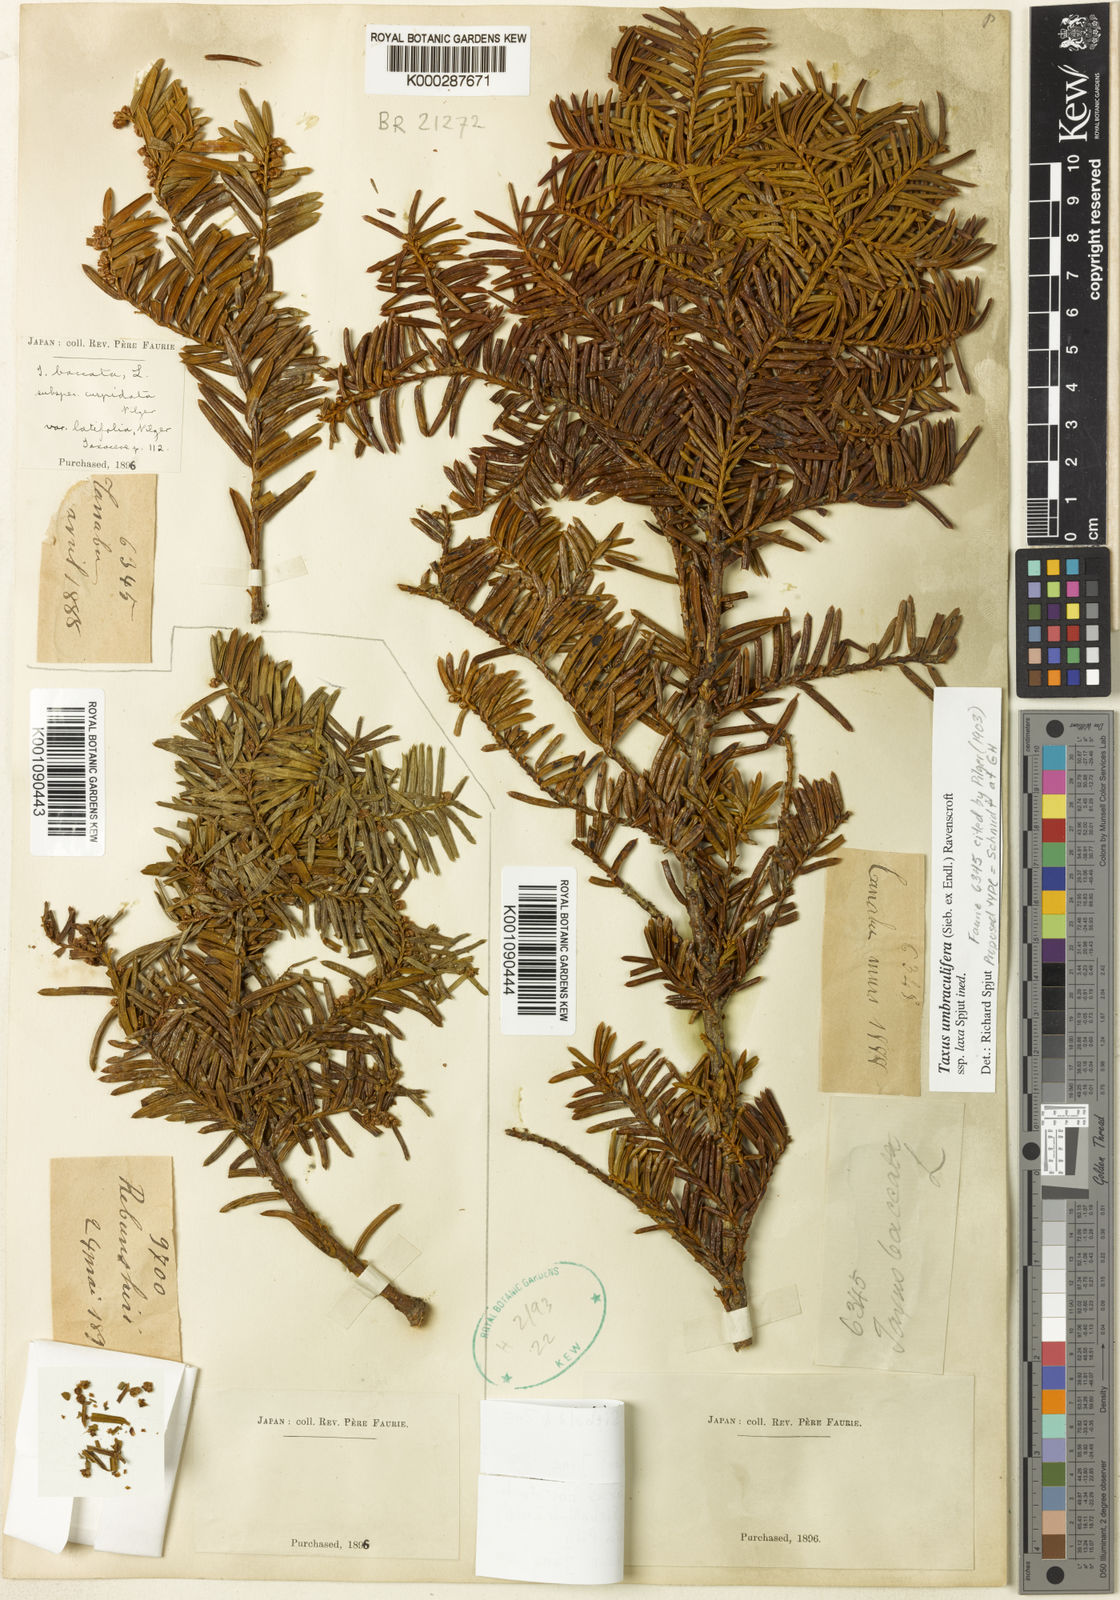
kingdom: Plantae
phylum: Tracheophyta
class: Pinopsida
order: Pinales
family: Taxaceae
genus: Taxus
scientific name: Taxus cuspidata
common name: Japanese yew
